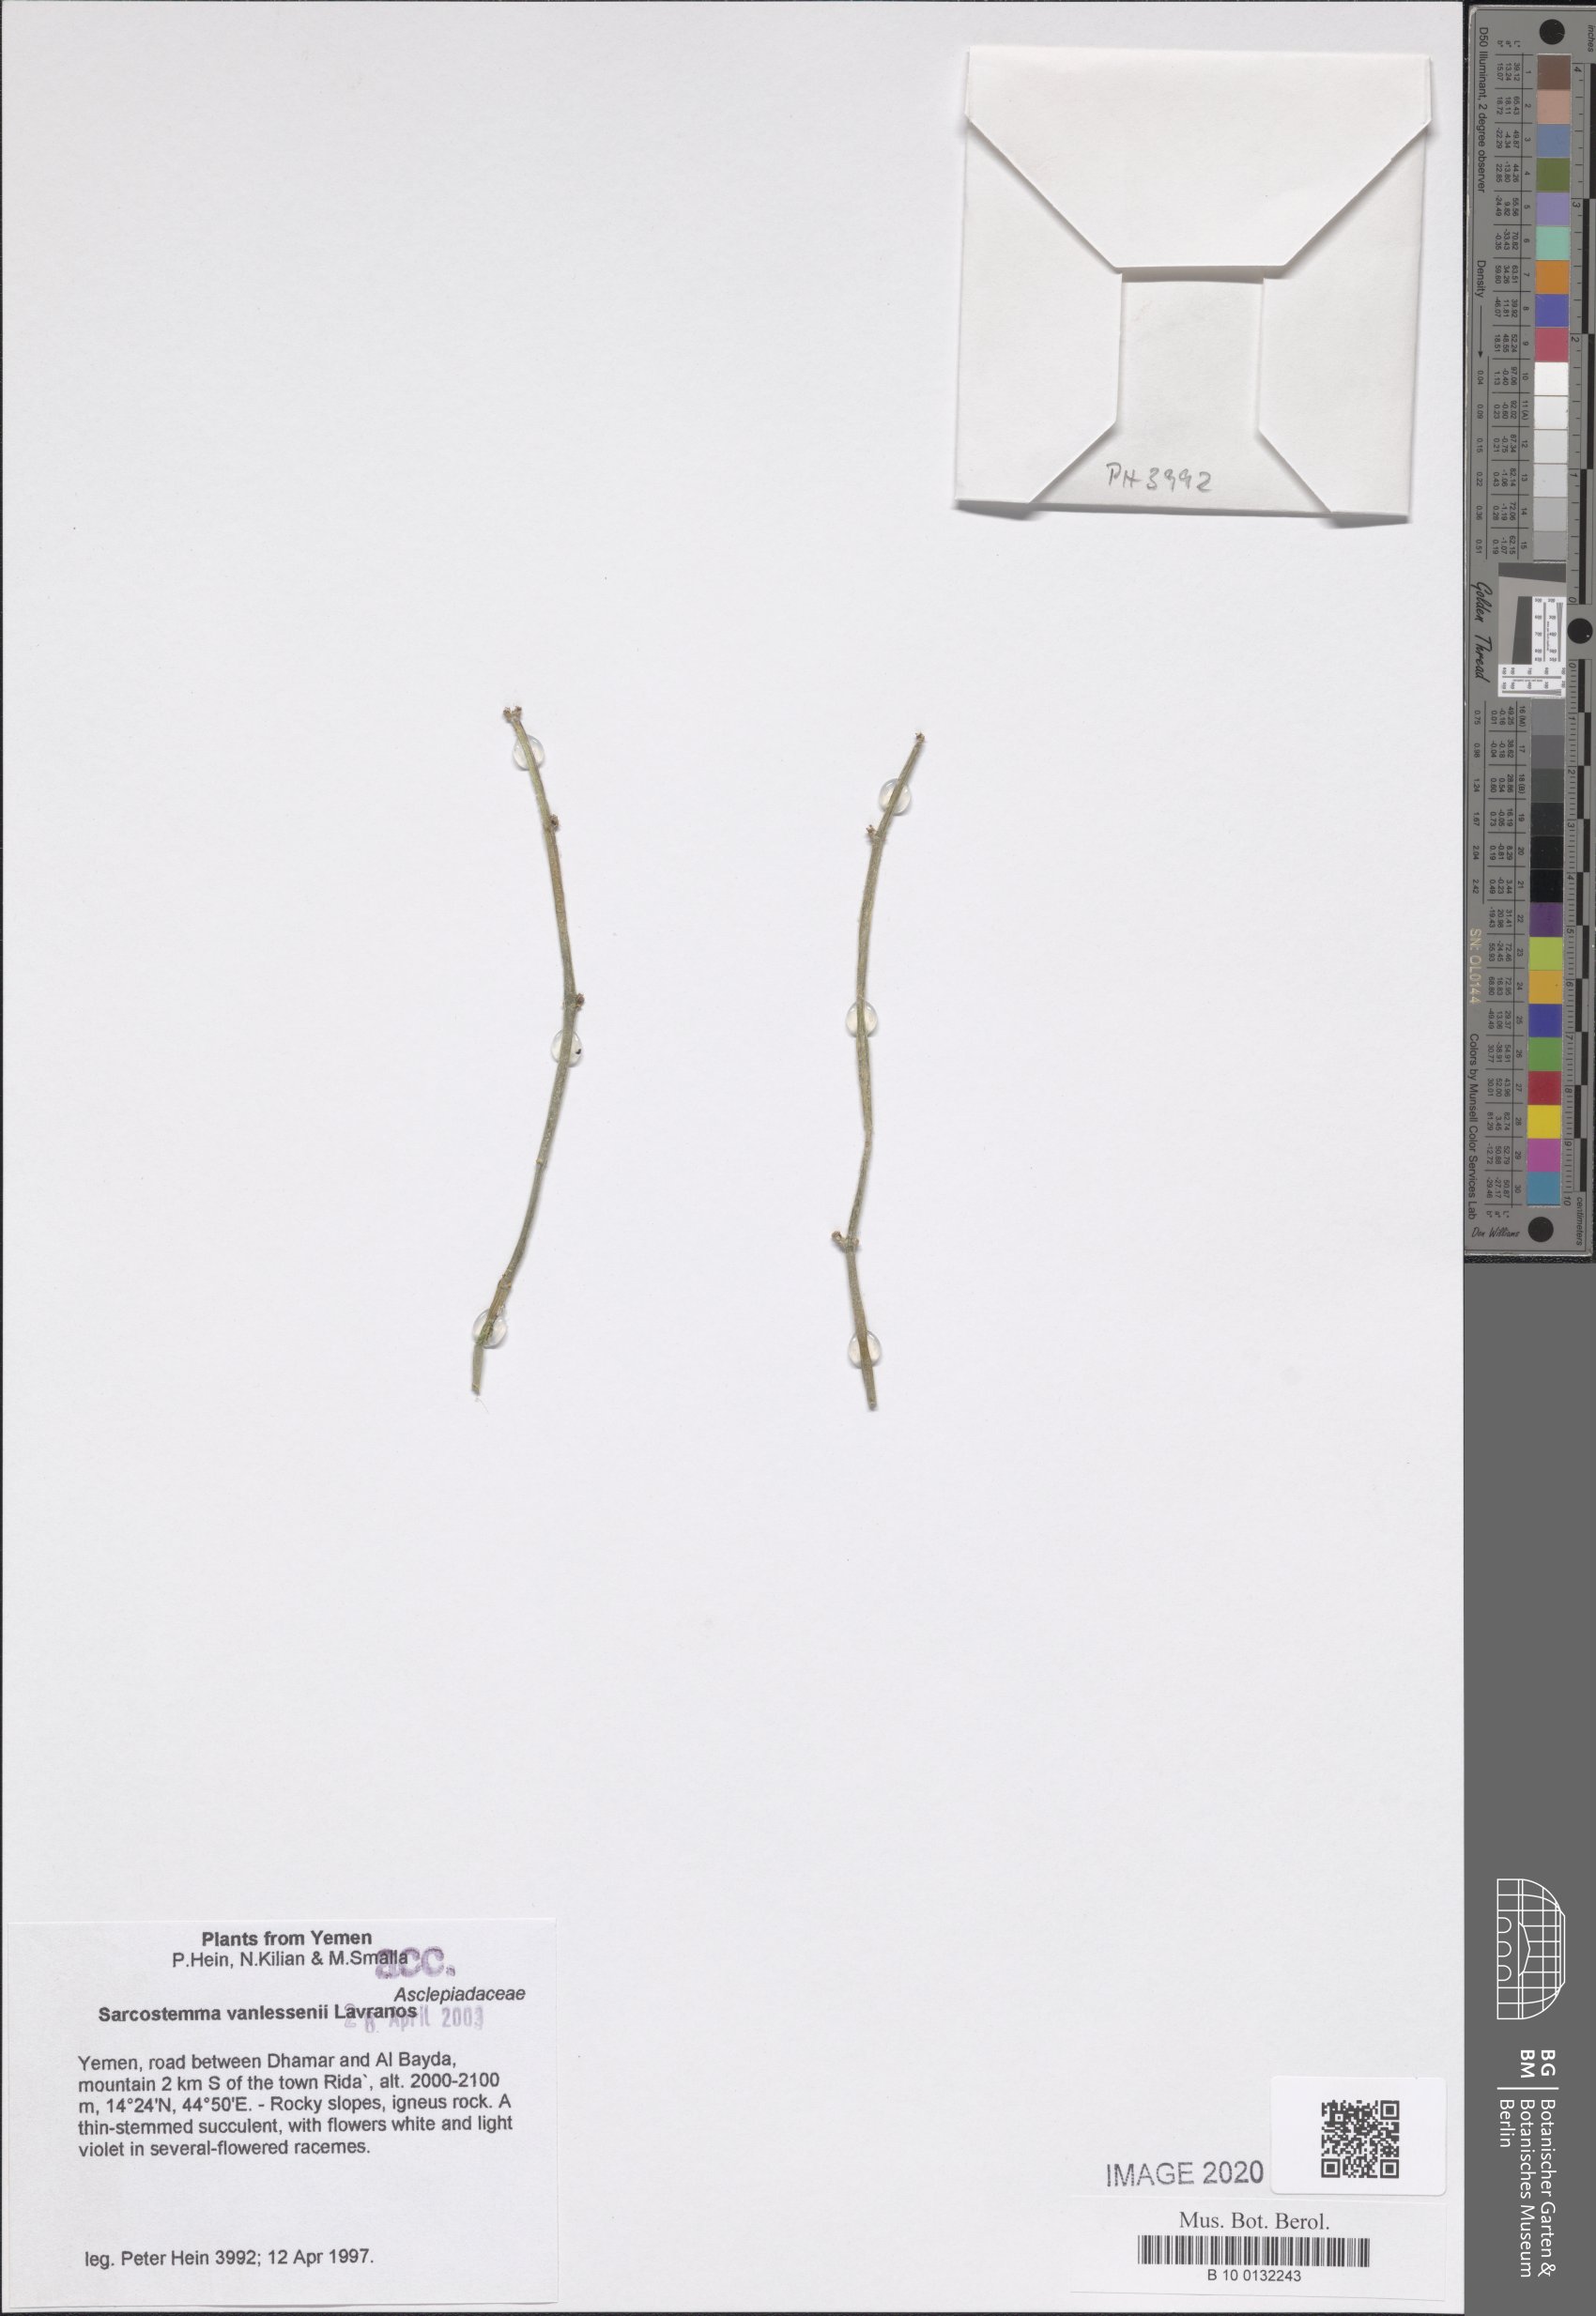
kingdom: Plantae
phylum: Tracheophyta
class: Magnoliopsida
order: Gentianales
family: Apocynaceae
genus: Cynanchum
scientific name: Cynanchum vanlessenii
